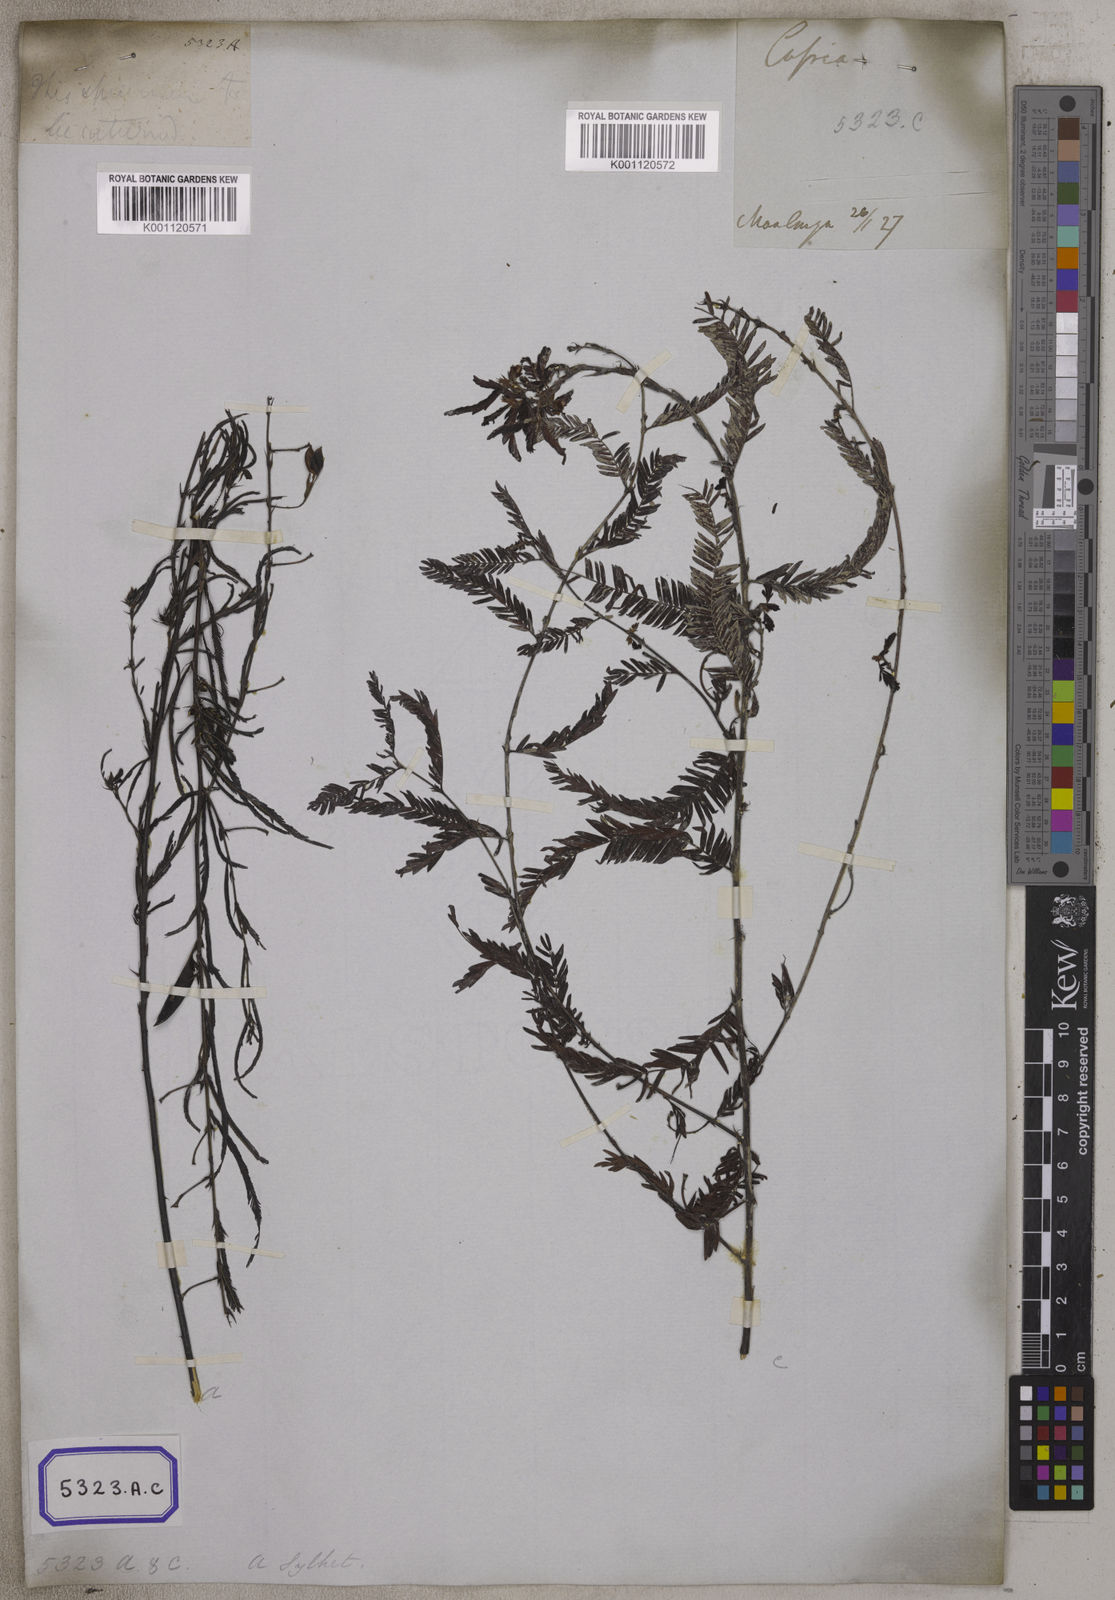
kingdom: Plantae
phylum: Tracheophyta
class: Magnoliopsida
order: Fabales
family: Fabaceae
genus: Chamaecrista
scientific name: Chamaecrista mimosoides
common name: Fish-bone cassia
